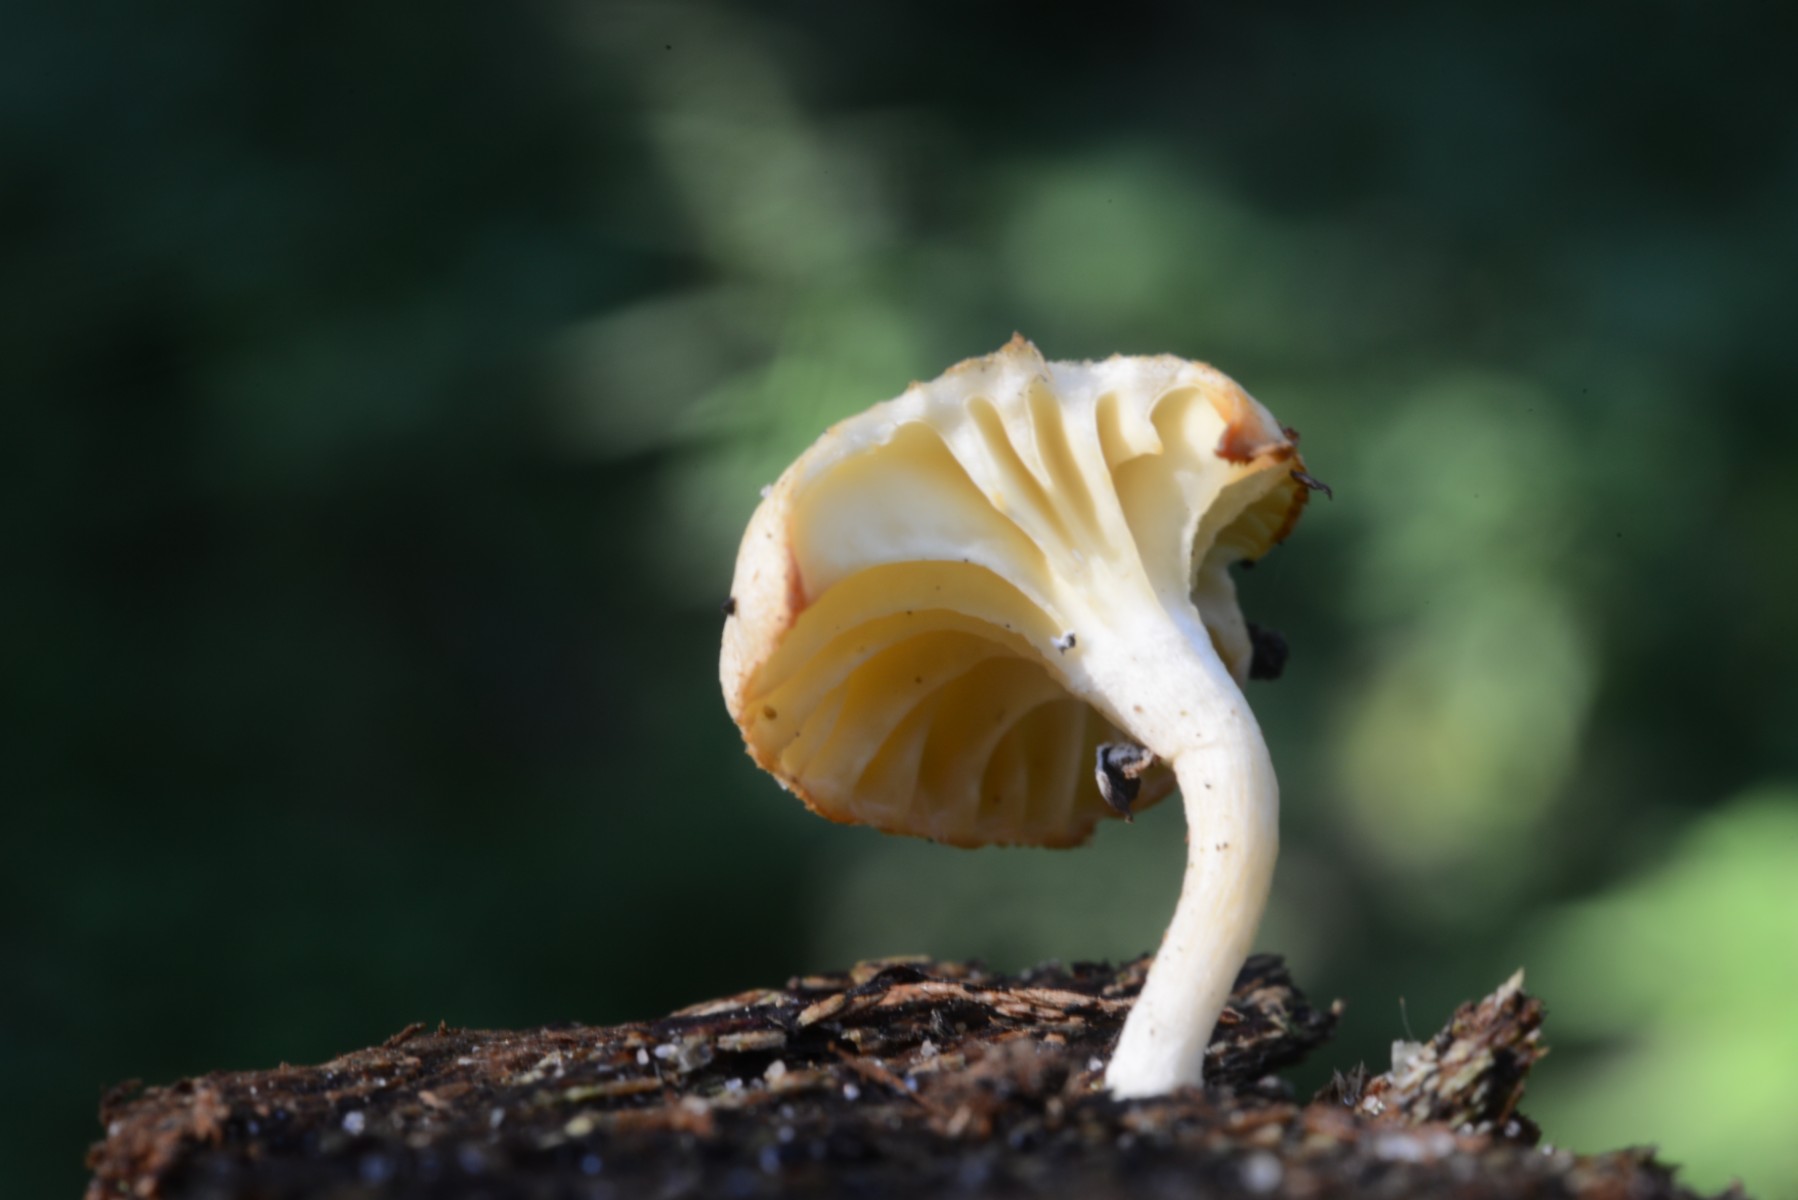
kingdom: Fungi
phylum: Basidiomycota
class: Agaricomycetes
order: Agaricales
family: Hygrophoraceae
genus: Chrysomphalina
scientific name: Chrysomphalina grossula
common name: stød-gyldenblad
